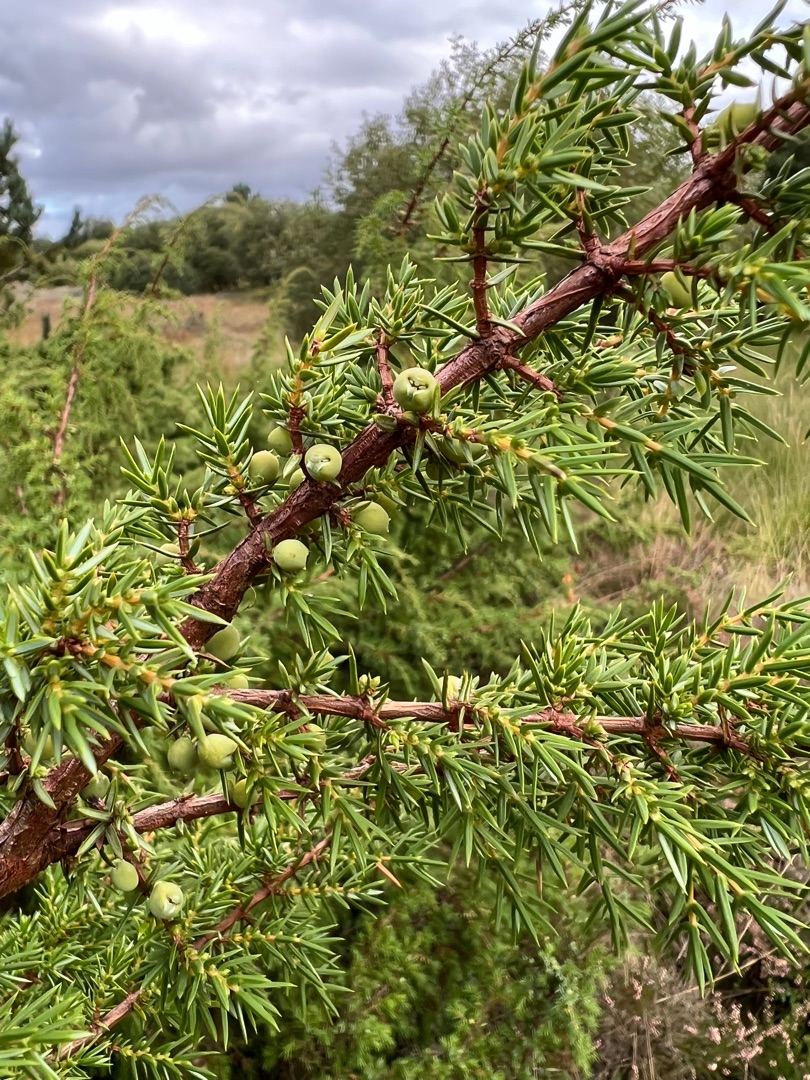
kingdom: Plantae
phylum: Tracheophyta
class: Pinopsida
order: Pinales
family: Cupressaceae
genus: Juniperus
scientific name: Juniperus communis
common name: Almindelig ene
